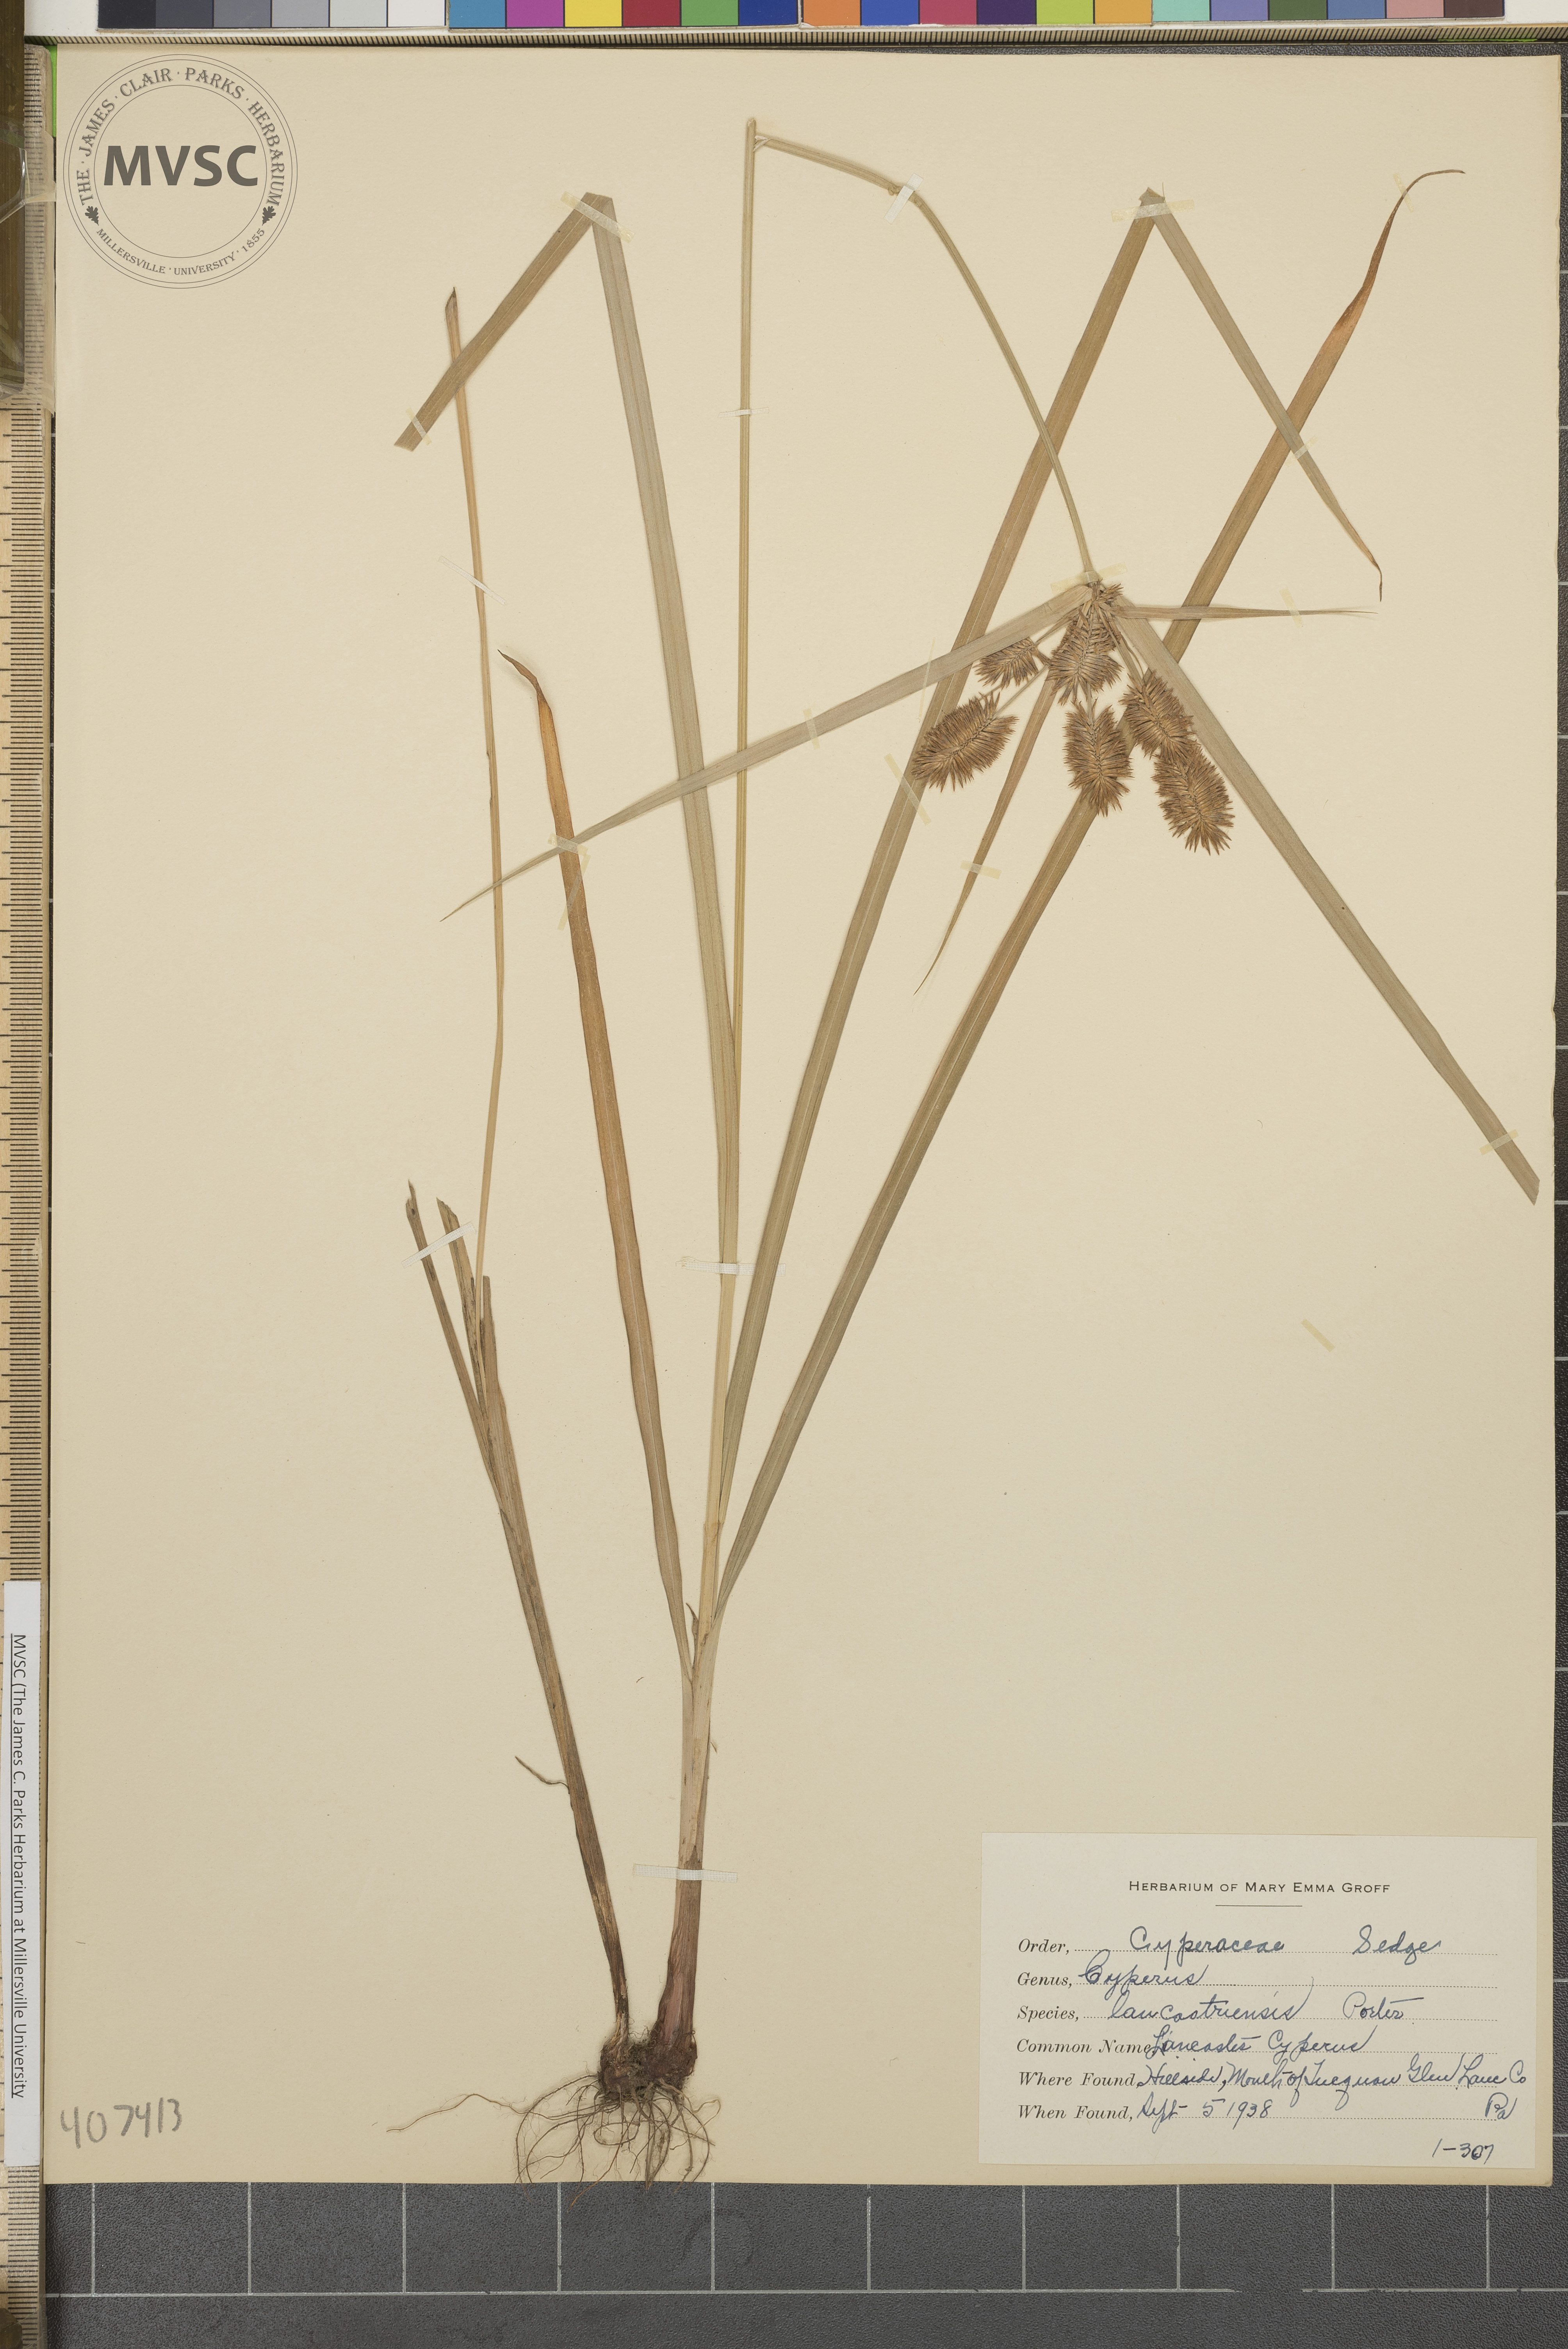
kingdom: Plantae
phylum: Tracheophyta
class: Liliopsida
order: Poales
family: Cyperaceae
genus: Cyperus
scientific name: Cyperus lancastriensis
